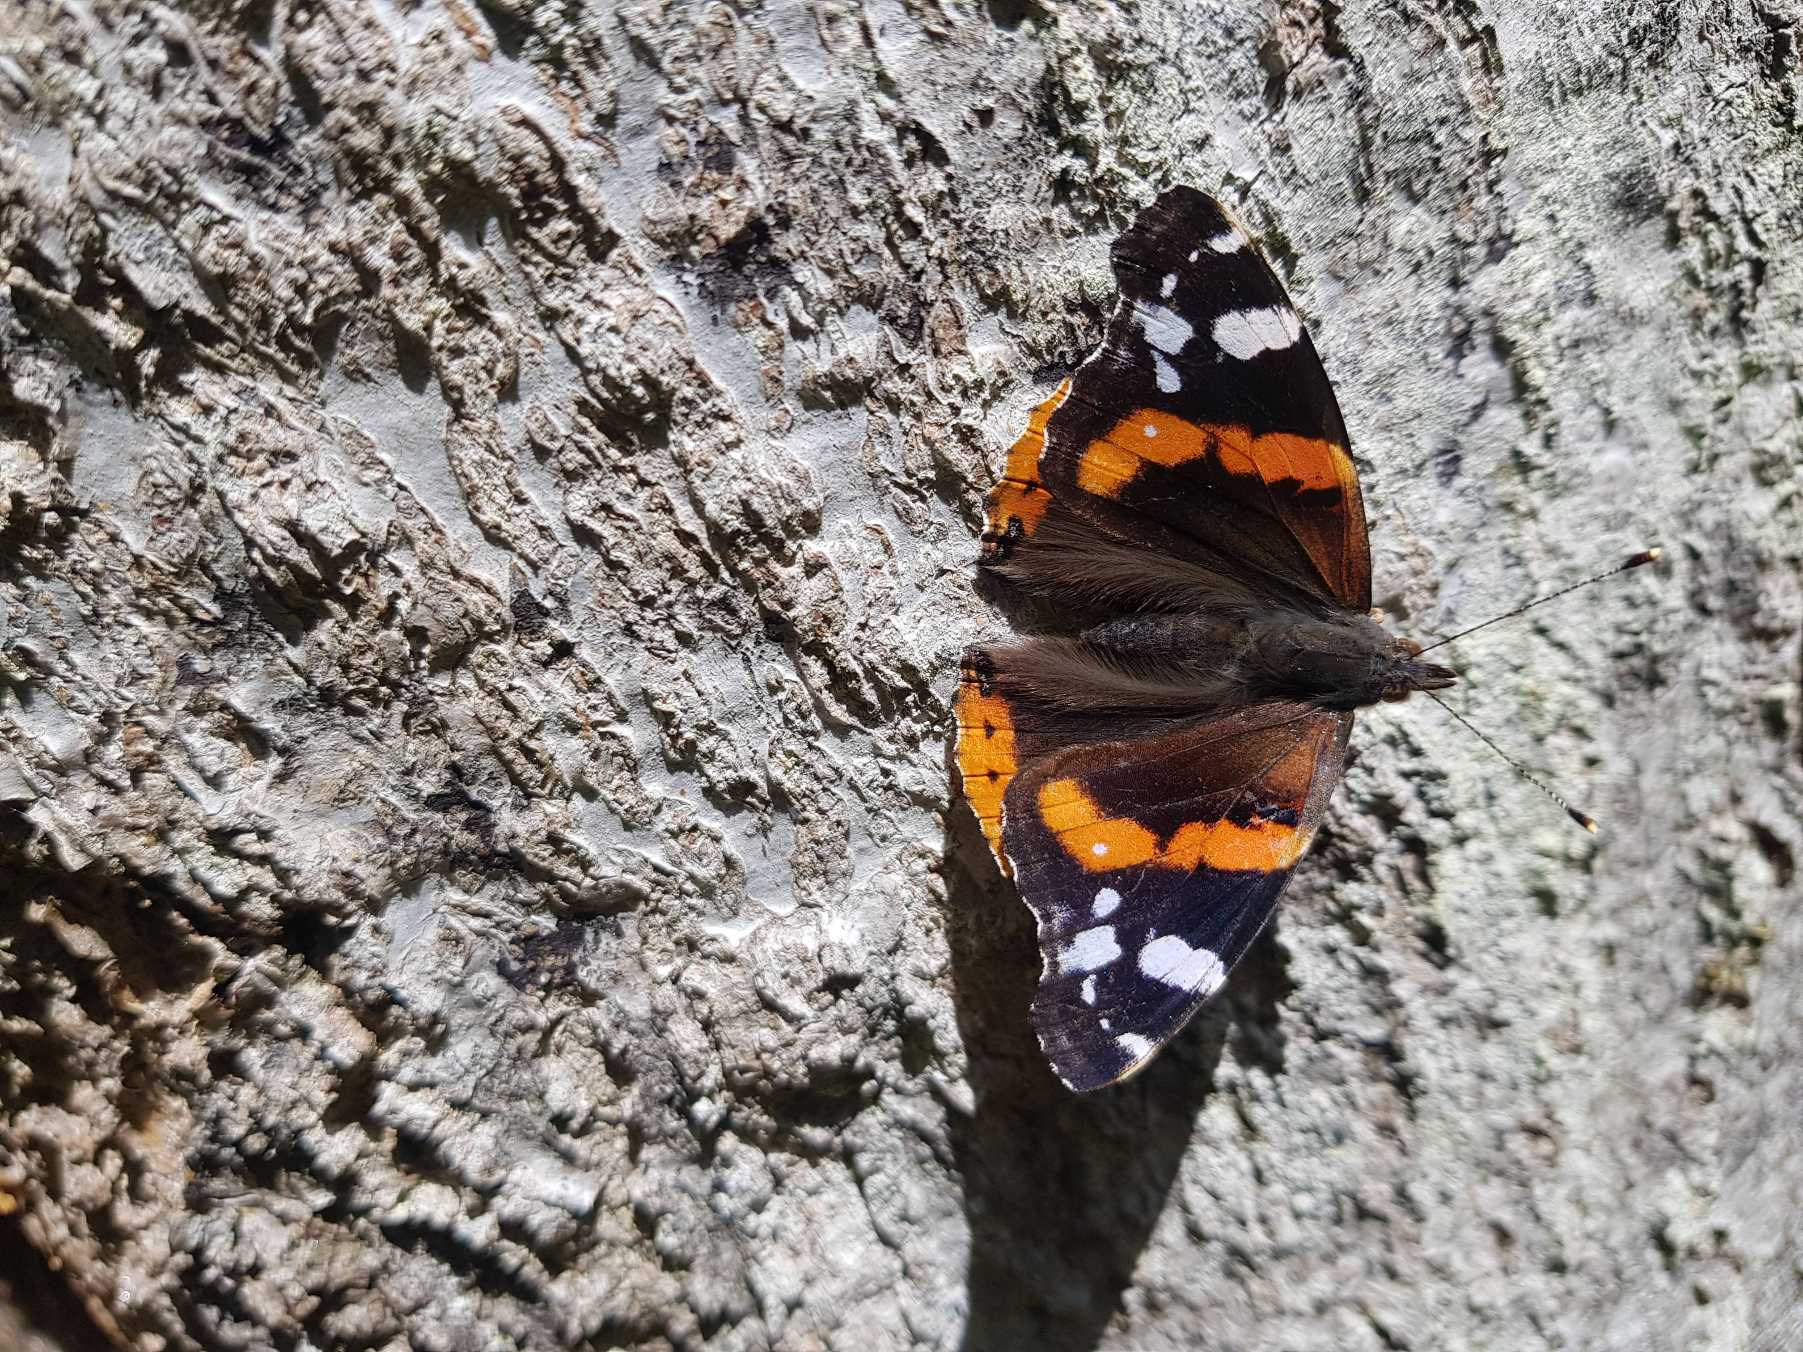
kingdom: Animalia
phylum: Arthropoda
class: Insecta
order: Lepidoptera
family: Nymphalidae
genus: Vanessa
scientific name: Vanessa atalanta
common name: Admiral
